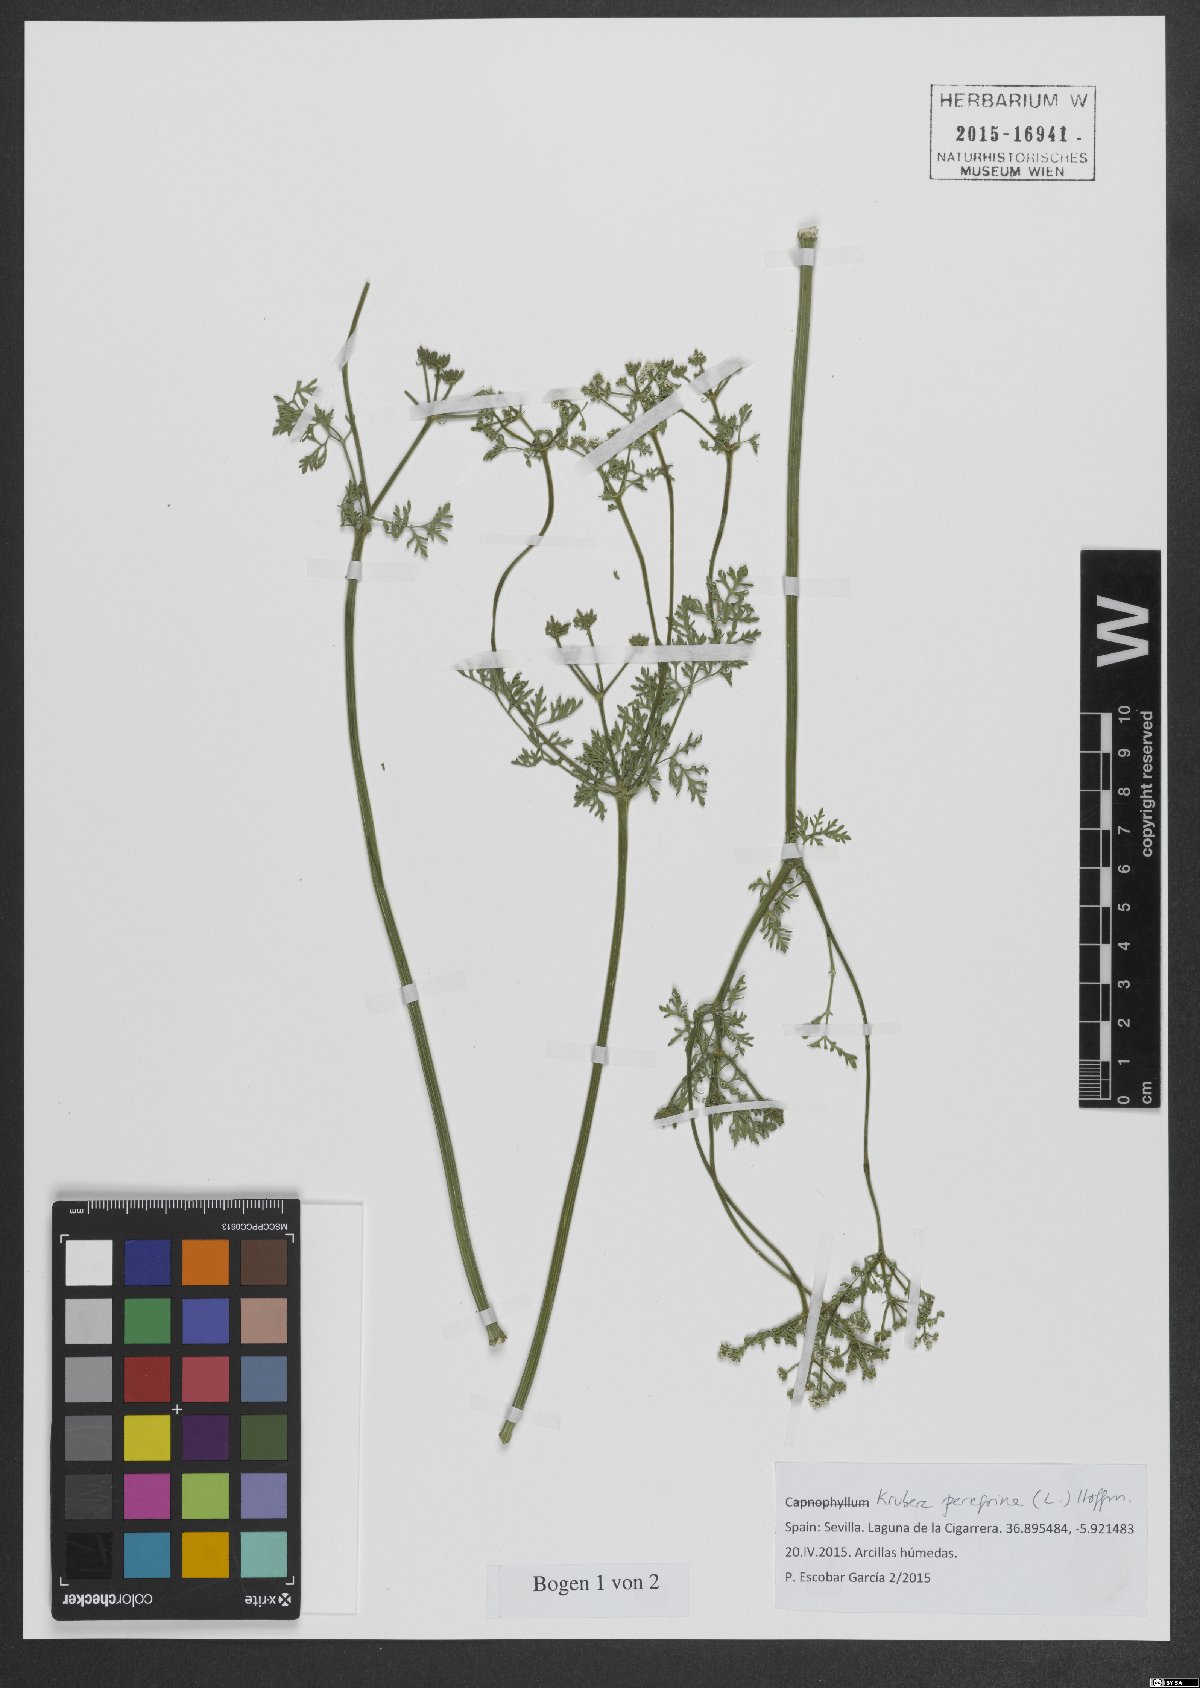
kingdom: Plantae
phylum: Tracheophyta
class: Magnoliopsida
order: Apiales
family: Apiaceae
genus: Krubera
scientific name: Krubera peregrina
